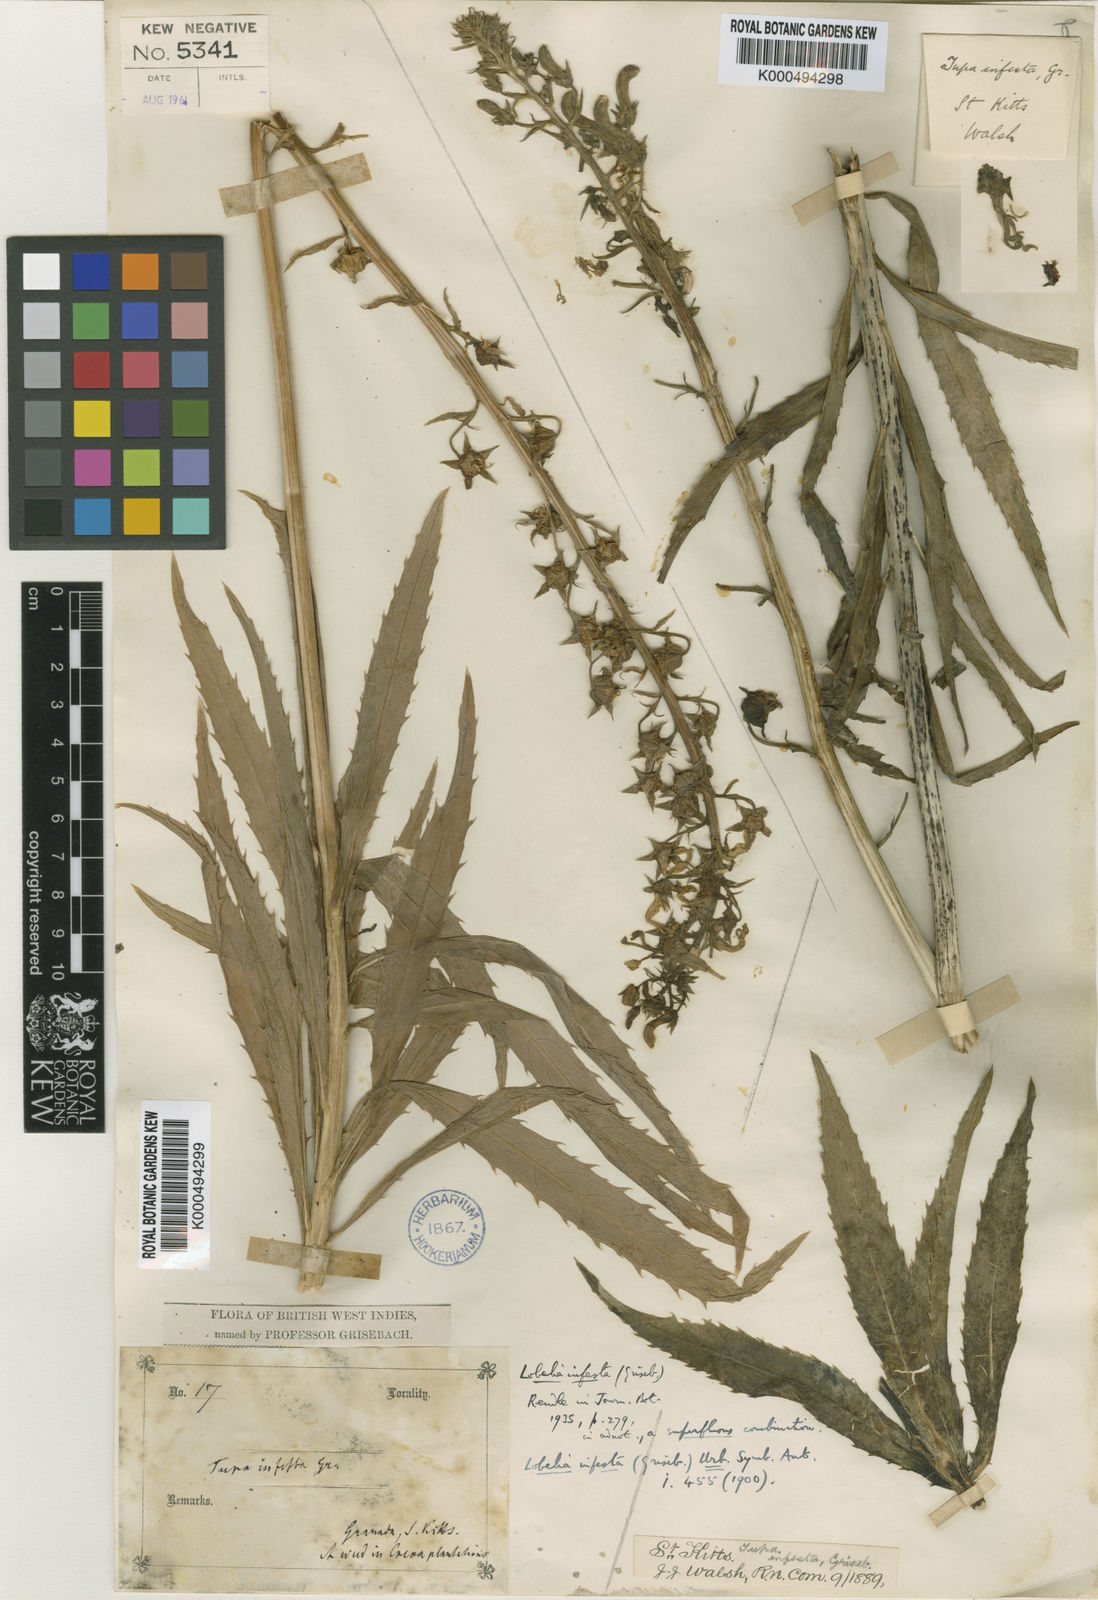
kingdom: Plantae
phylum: Tracheophyta
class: Magnoliopsida
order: Asterales
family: Campanulaceae
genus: Lobelia
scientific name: Lobelia cirsiifolia
